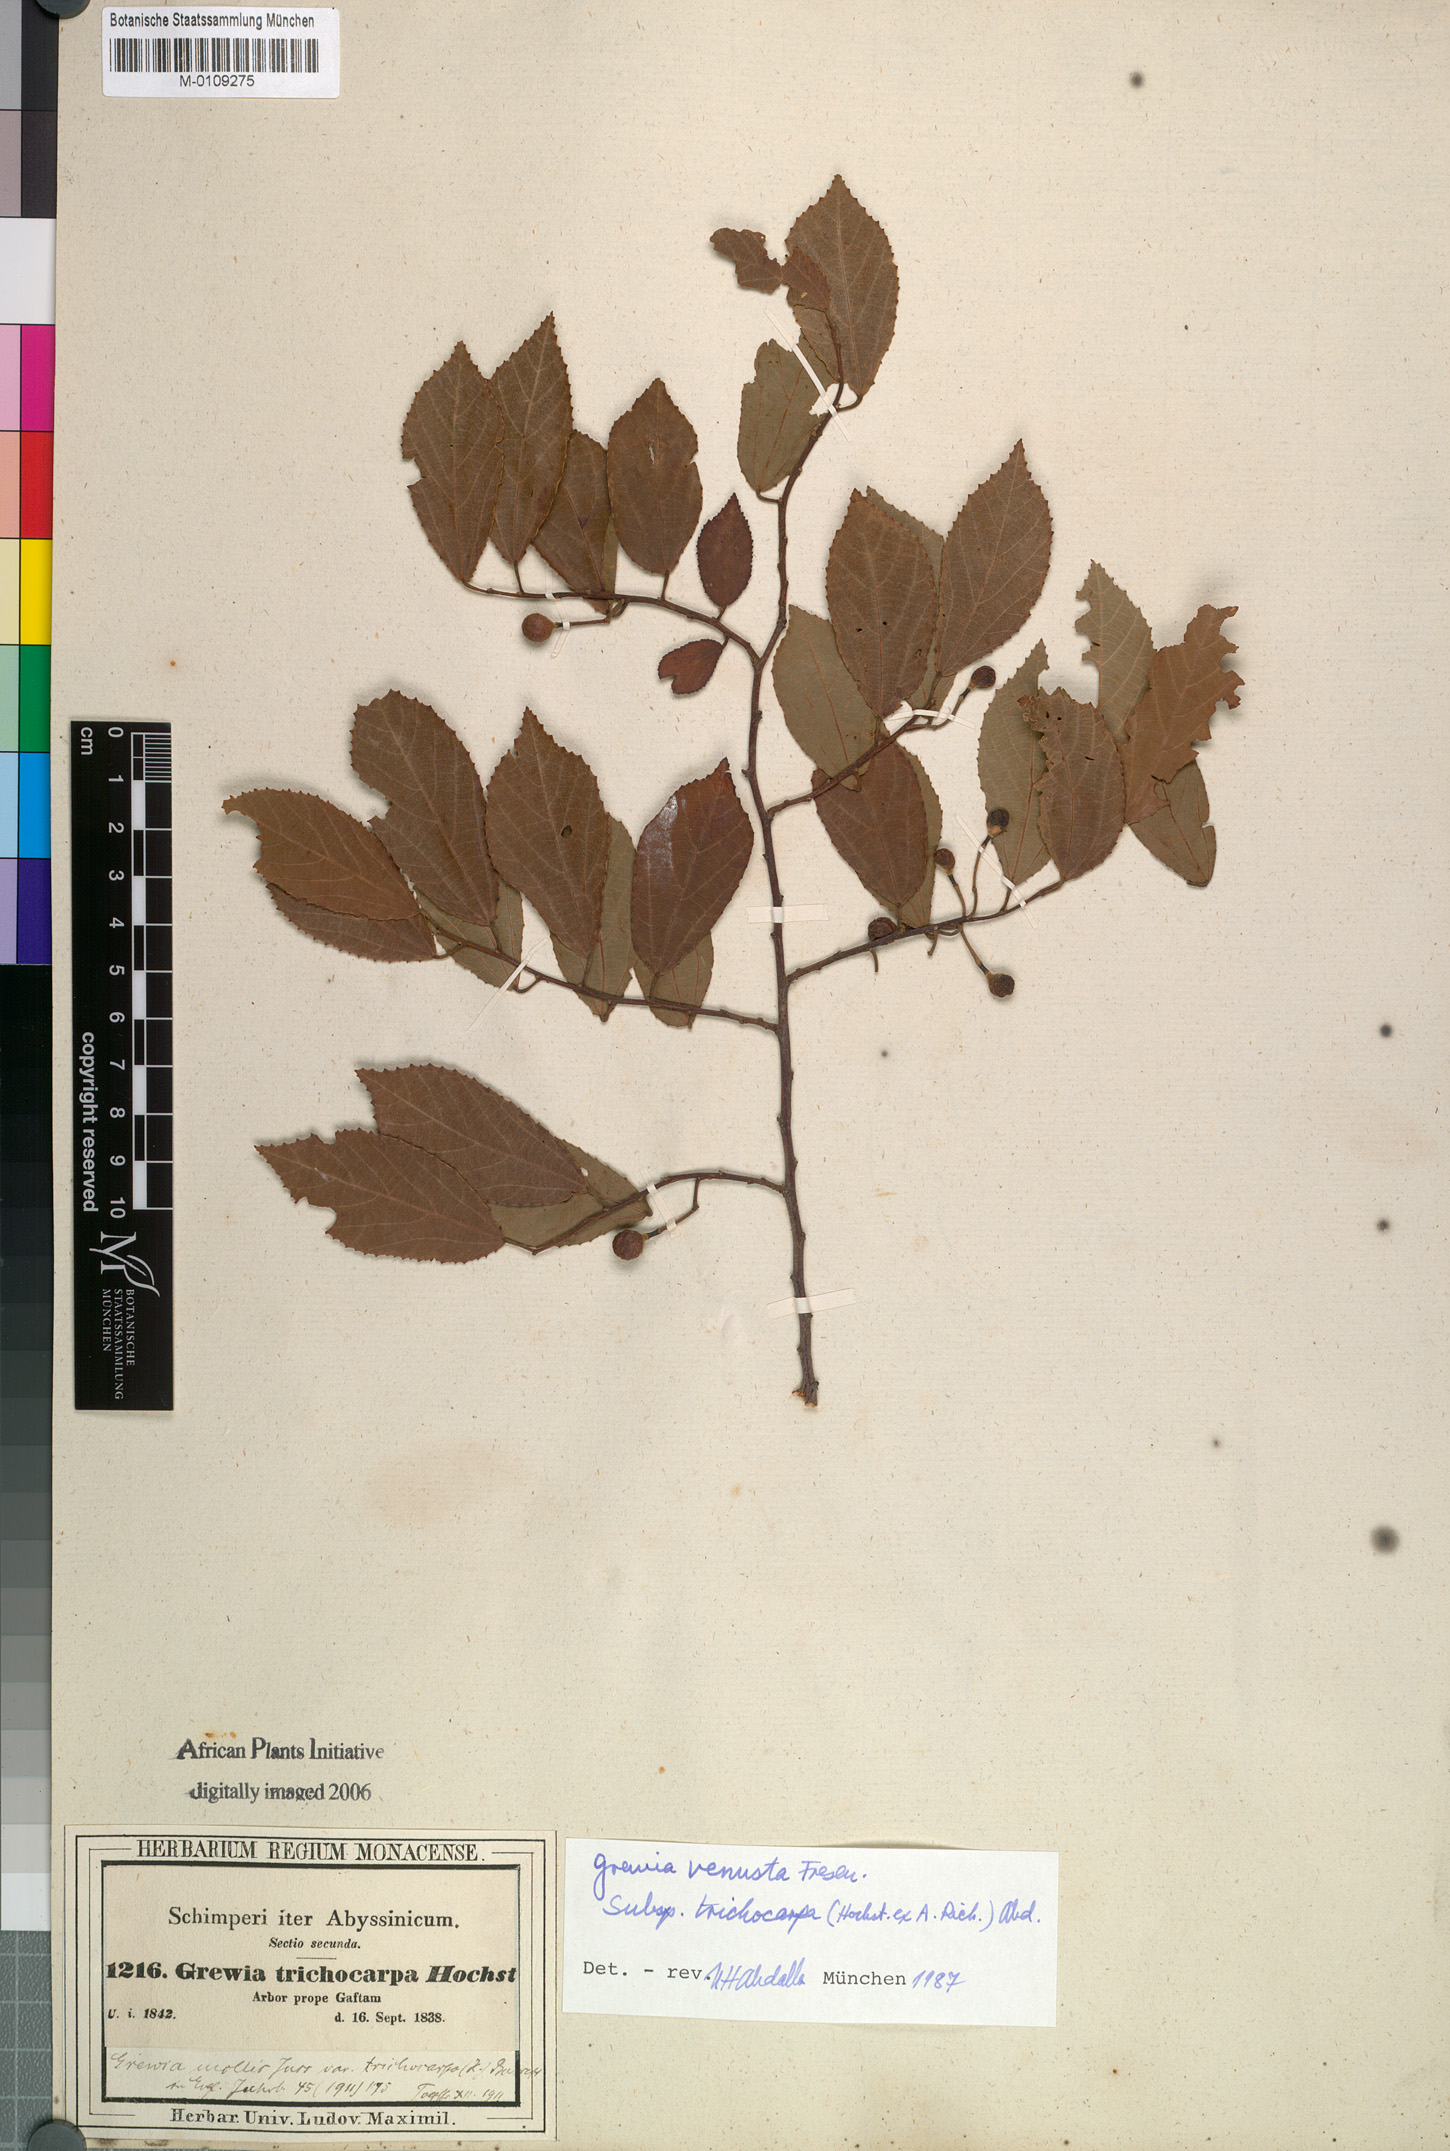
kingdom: Plantae
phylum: Tracheophyta
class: Magnoliopsida
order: Malvales
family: Malvaceae
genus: Grewia
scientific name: Grewia mollis
